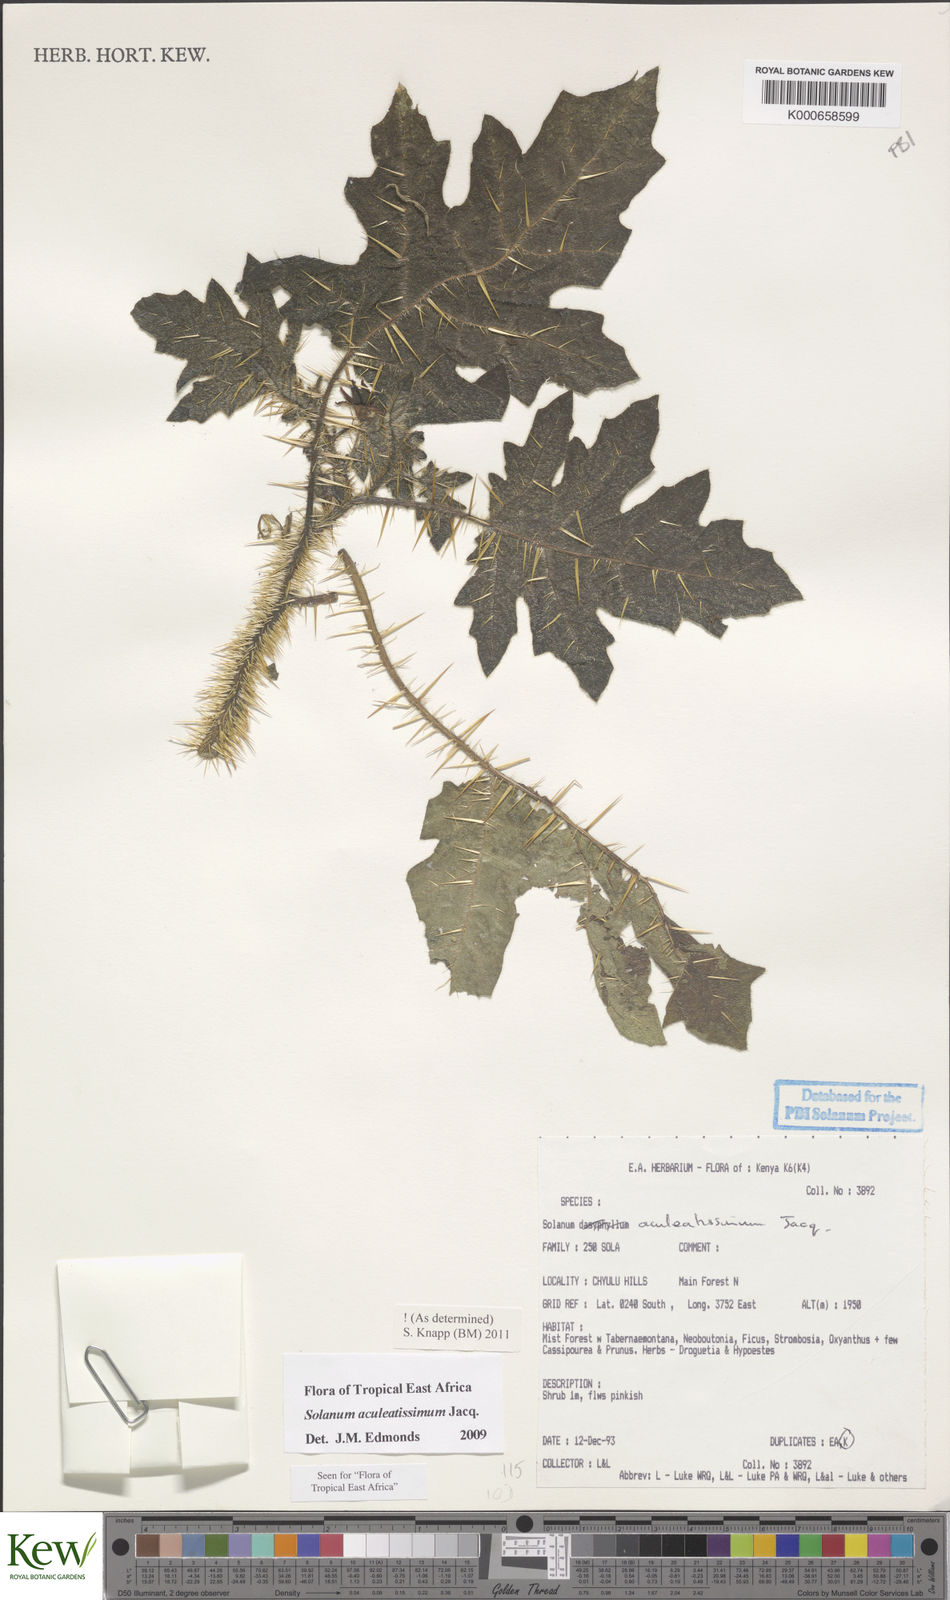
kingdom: Plantae
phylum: Tracheophyta
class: Magnoliopsida
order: Solanales
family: Solanaceae
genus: Solanum
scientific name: Solanum aculeatissimum
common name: Dutch eggplant
